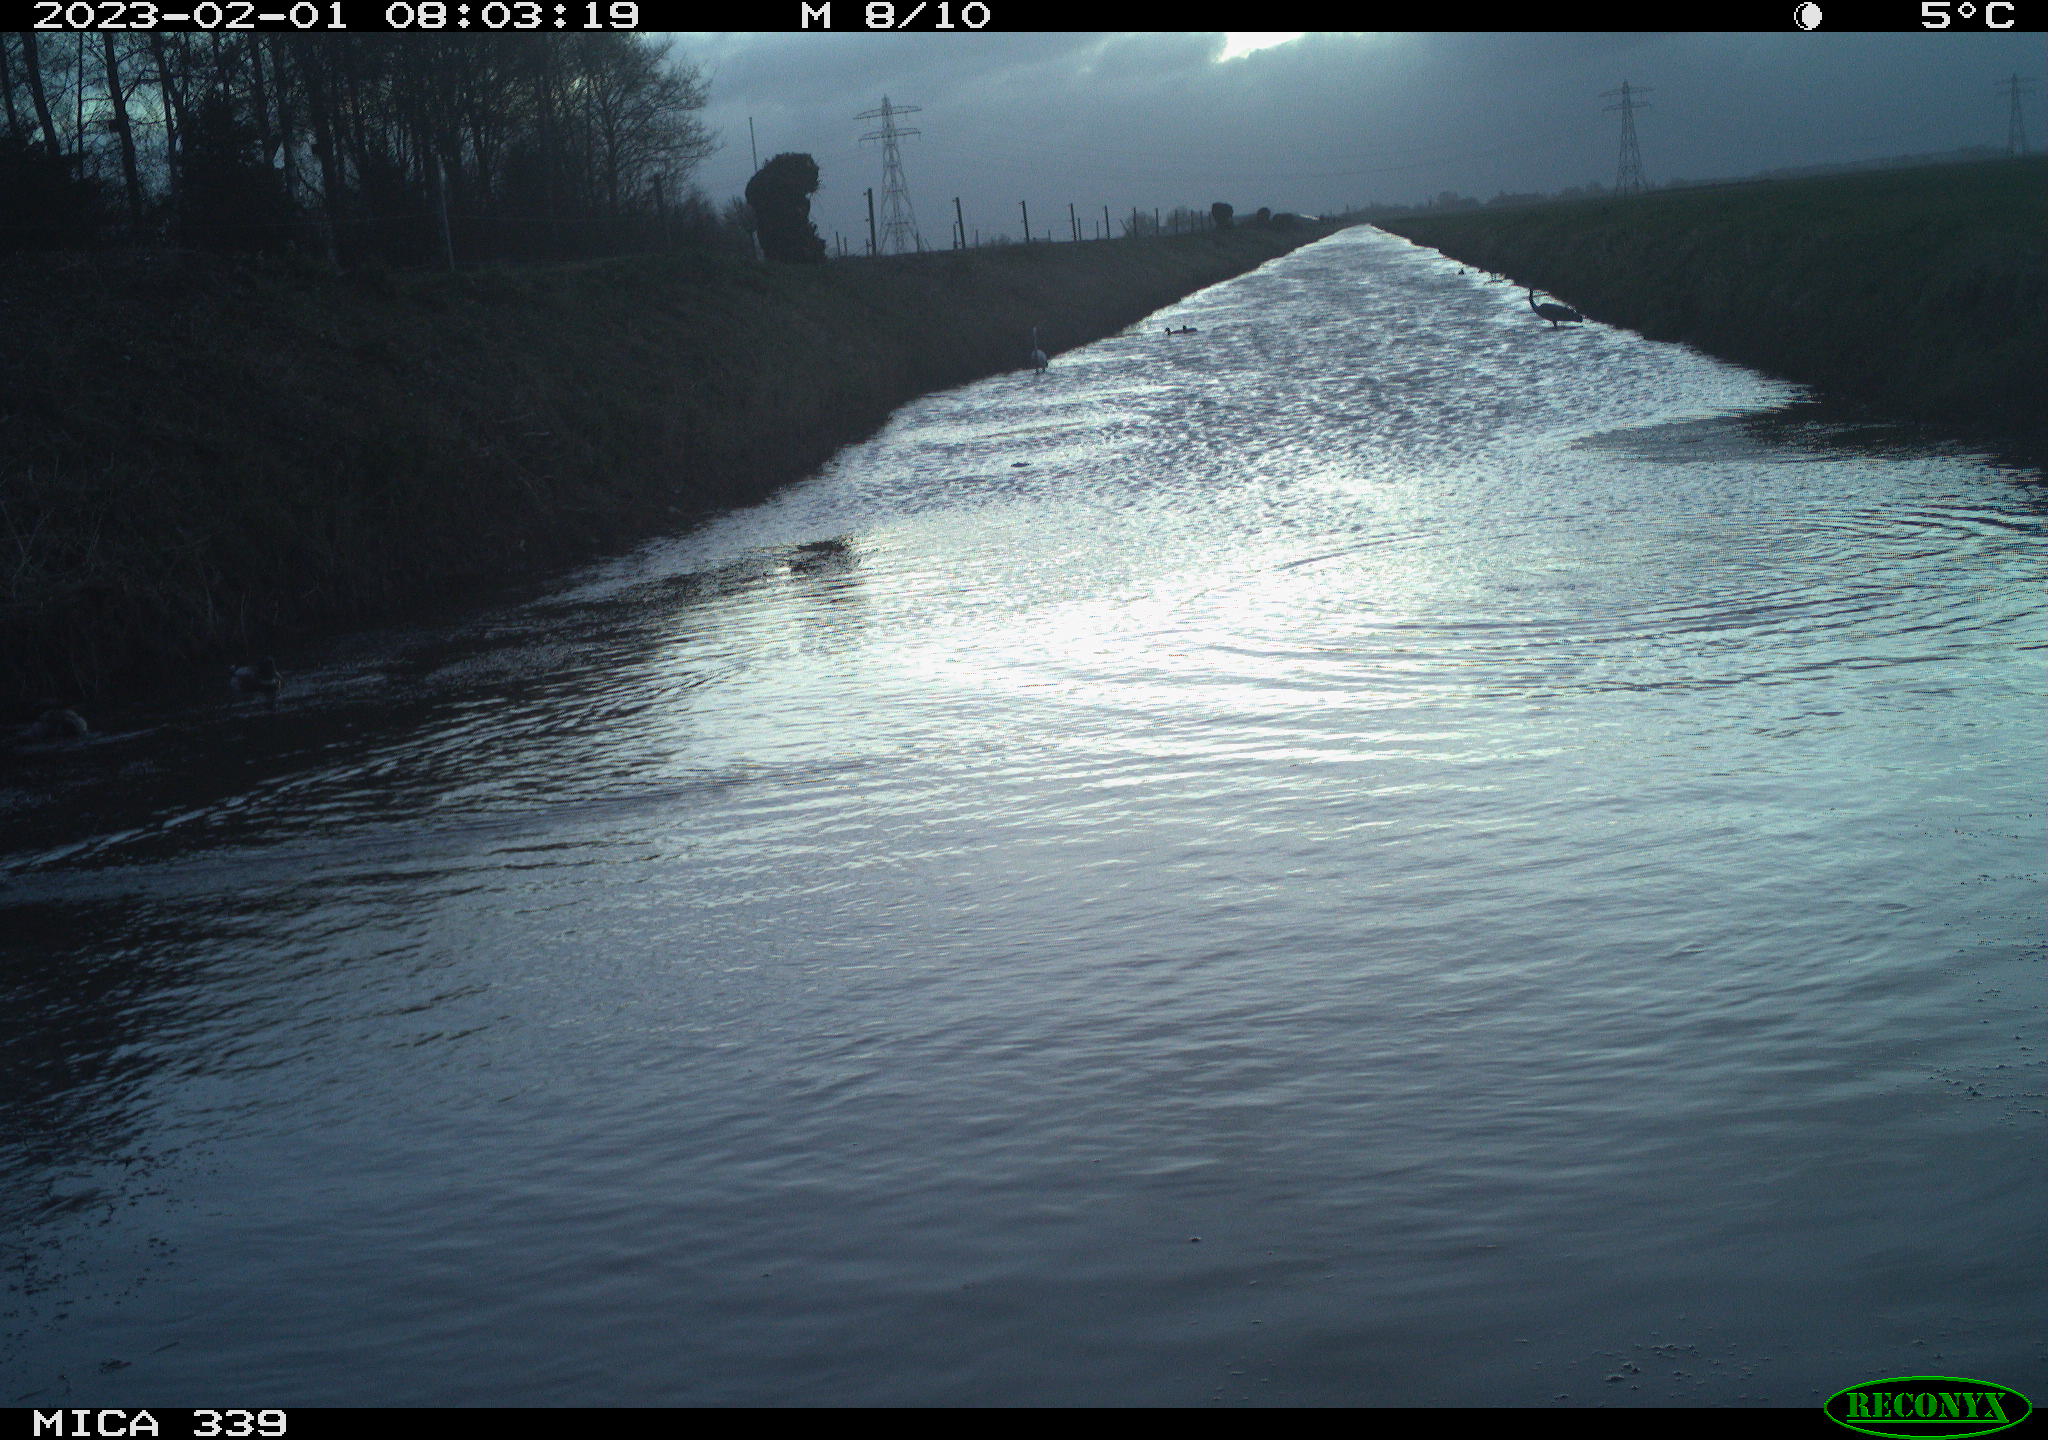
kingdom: Animalia
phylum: Chordata
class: Aves
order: Anseriformes
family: Anatidae
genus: Anas
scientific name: Anas
